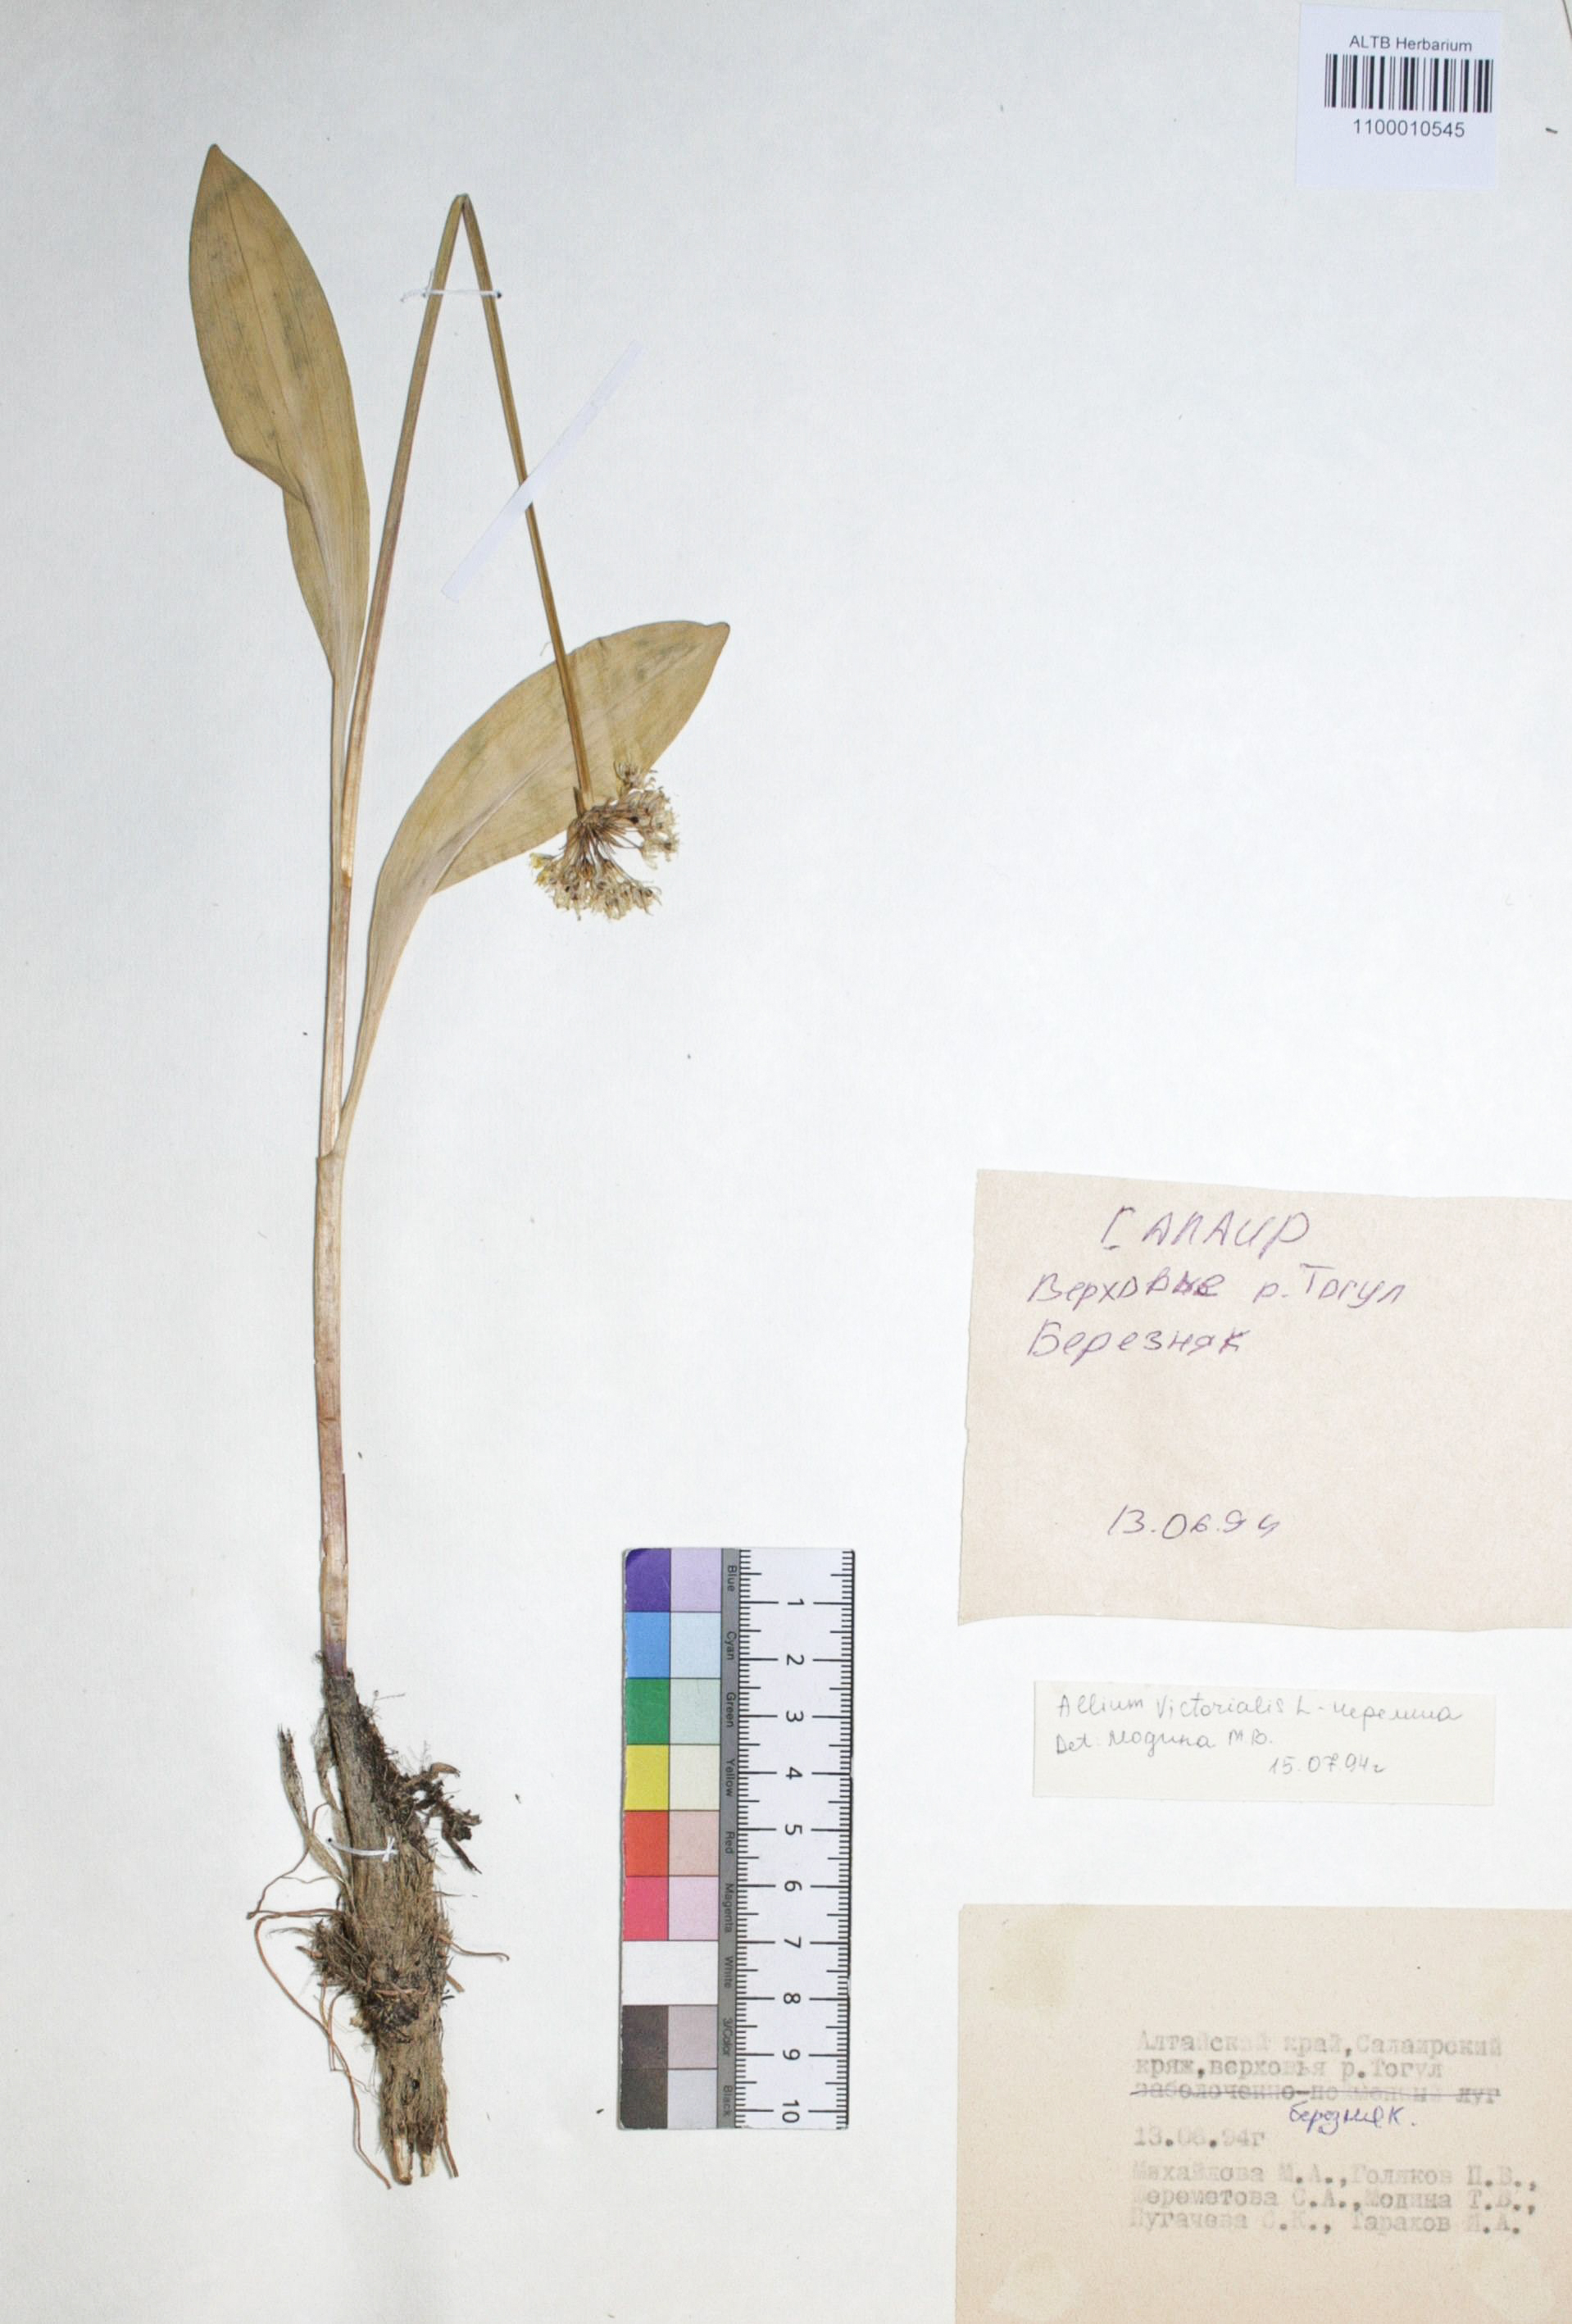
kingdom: Plantae
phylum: Tracheophyta
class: Liliopsida
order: Asparagales
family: Amaryllidaceae
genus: Allium
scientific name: Allium victorialis
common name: Alpine leek
